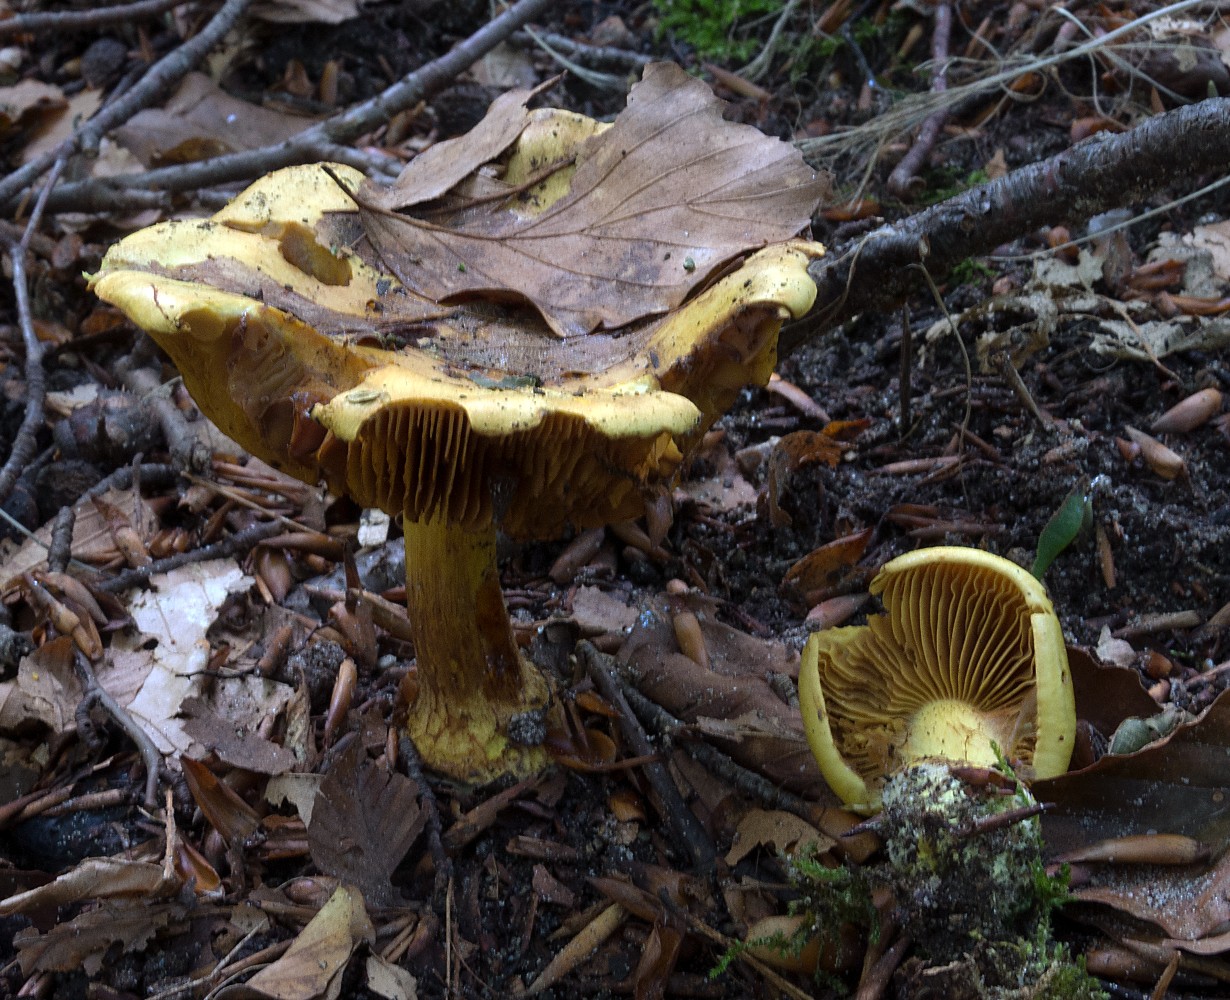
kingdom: Fungi
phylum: Basidiomycota
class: Agaricomycetes
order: Agaricales
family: Cortinariaceae
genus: Calonarius
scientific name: Calonarius splendens
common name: sirene-slørhat
